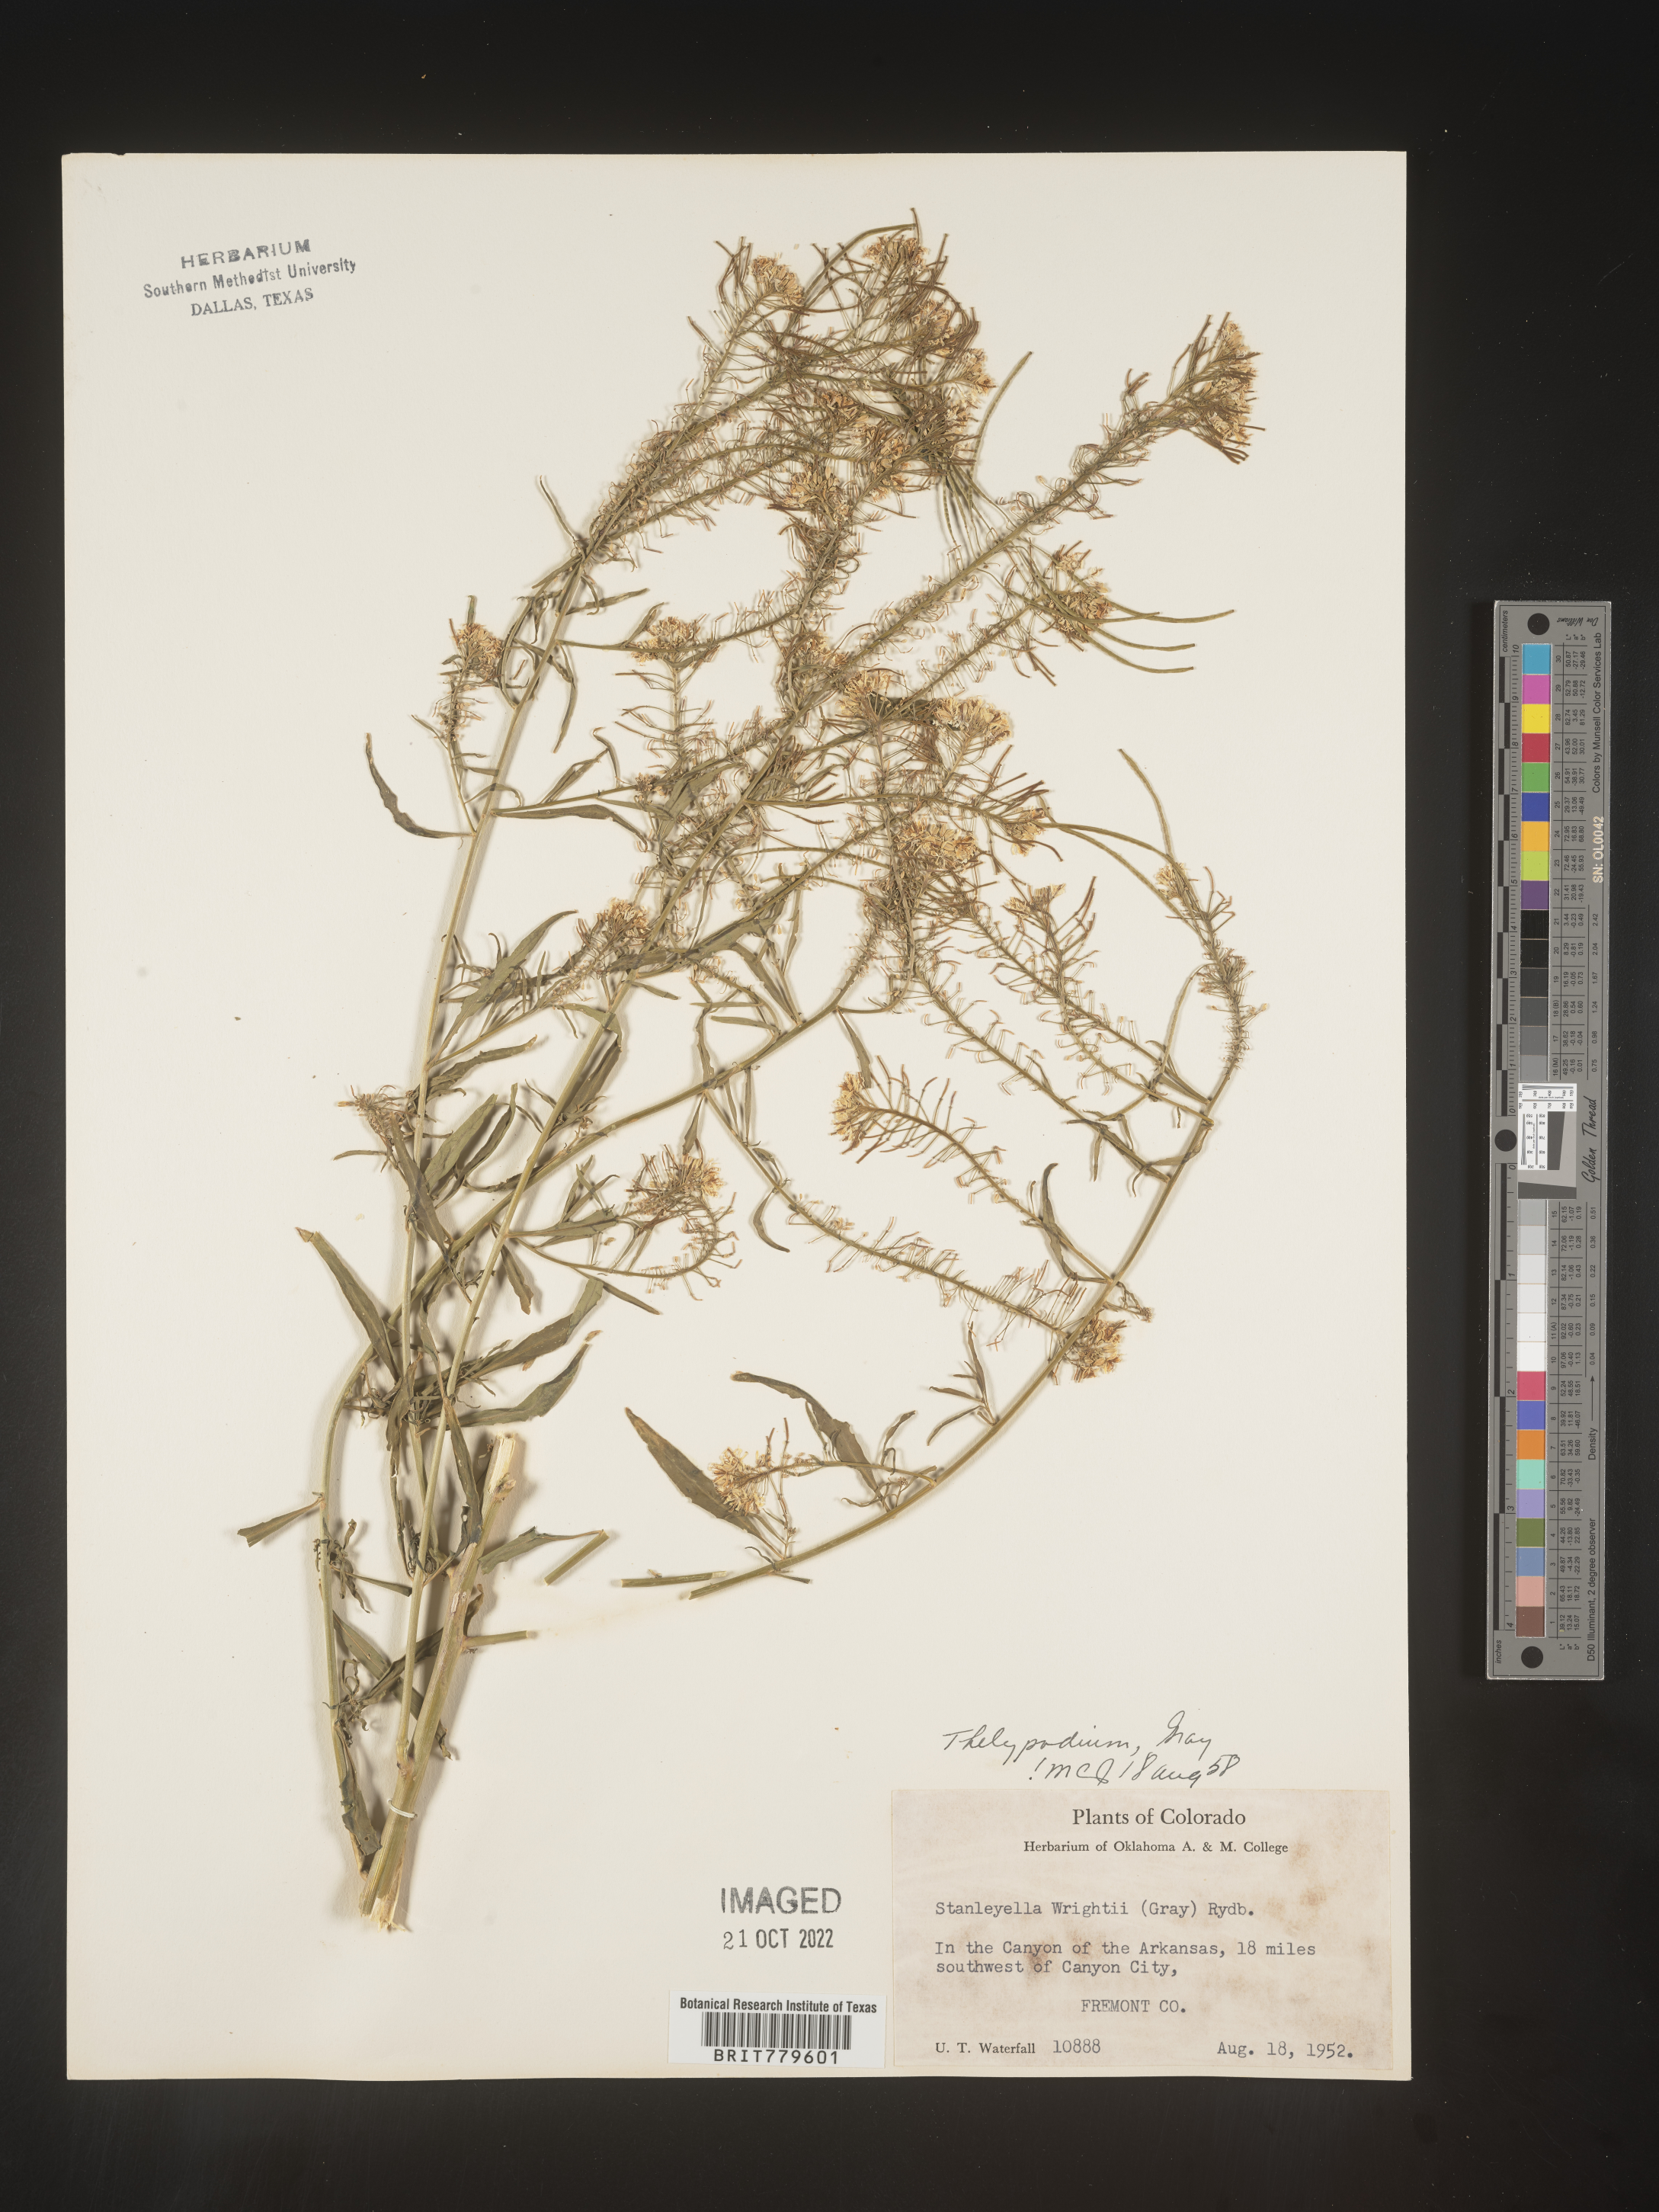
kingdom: Plantae
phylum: Tracheophyta
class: Magnoliopsida
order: Brassicales
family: Brassicaceae
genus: Thelypodium
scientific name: Thelypodium
